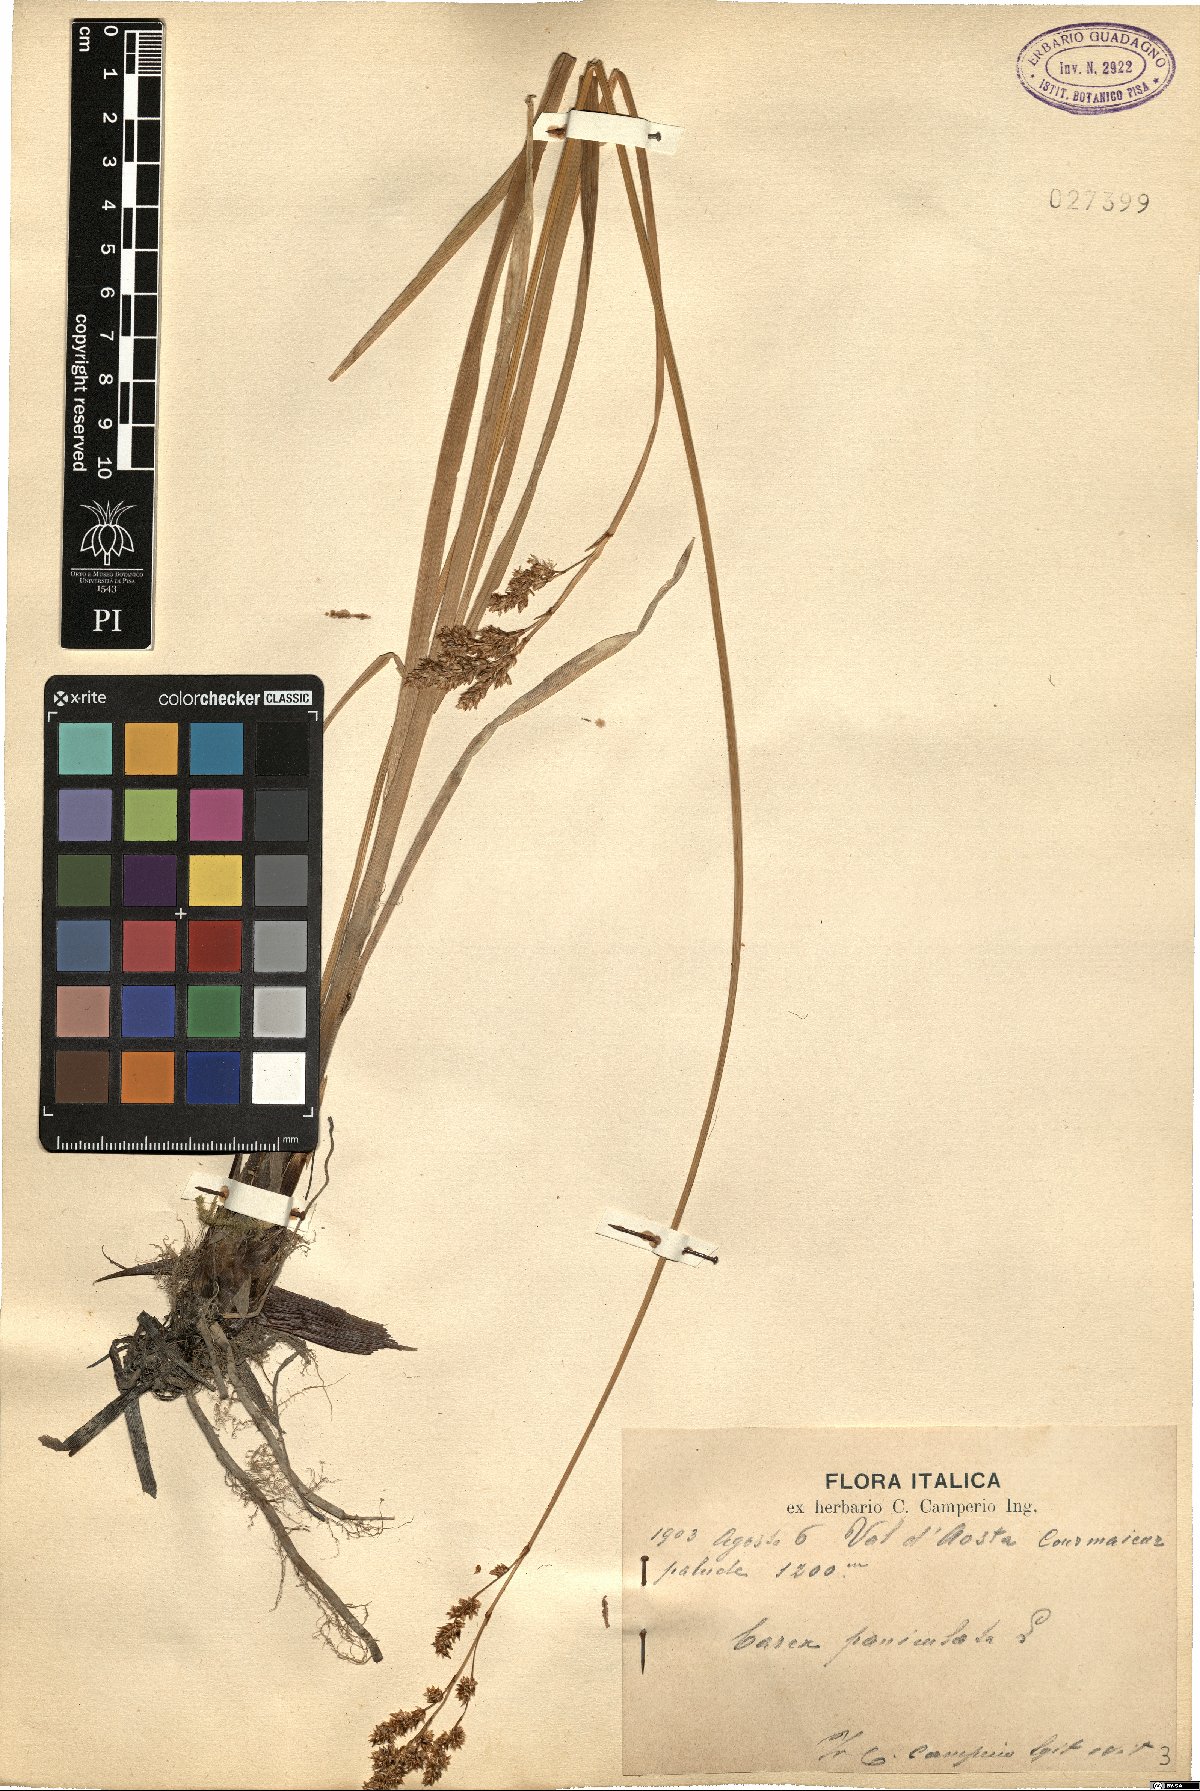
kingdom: Plantae
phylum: Tracheophyta
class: Liliopsida
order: Poales
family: Cyperaceae
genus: Carex
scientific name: Carex paniculata
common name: Greater tussock-sedge
